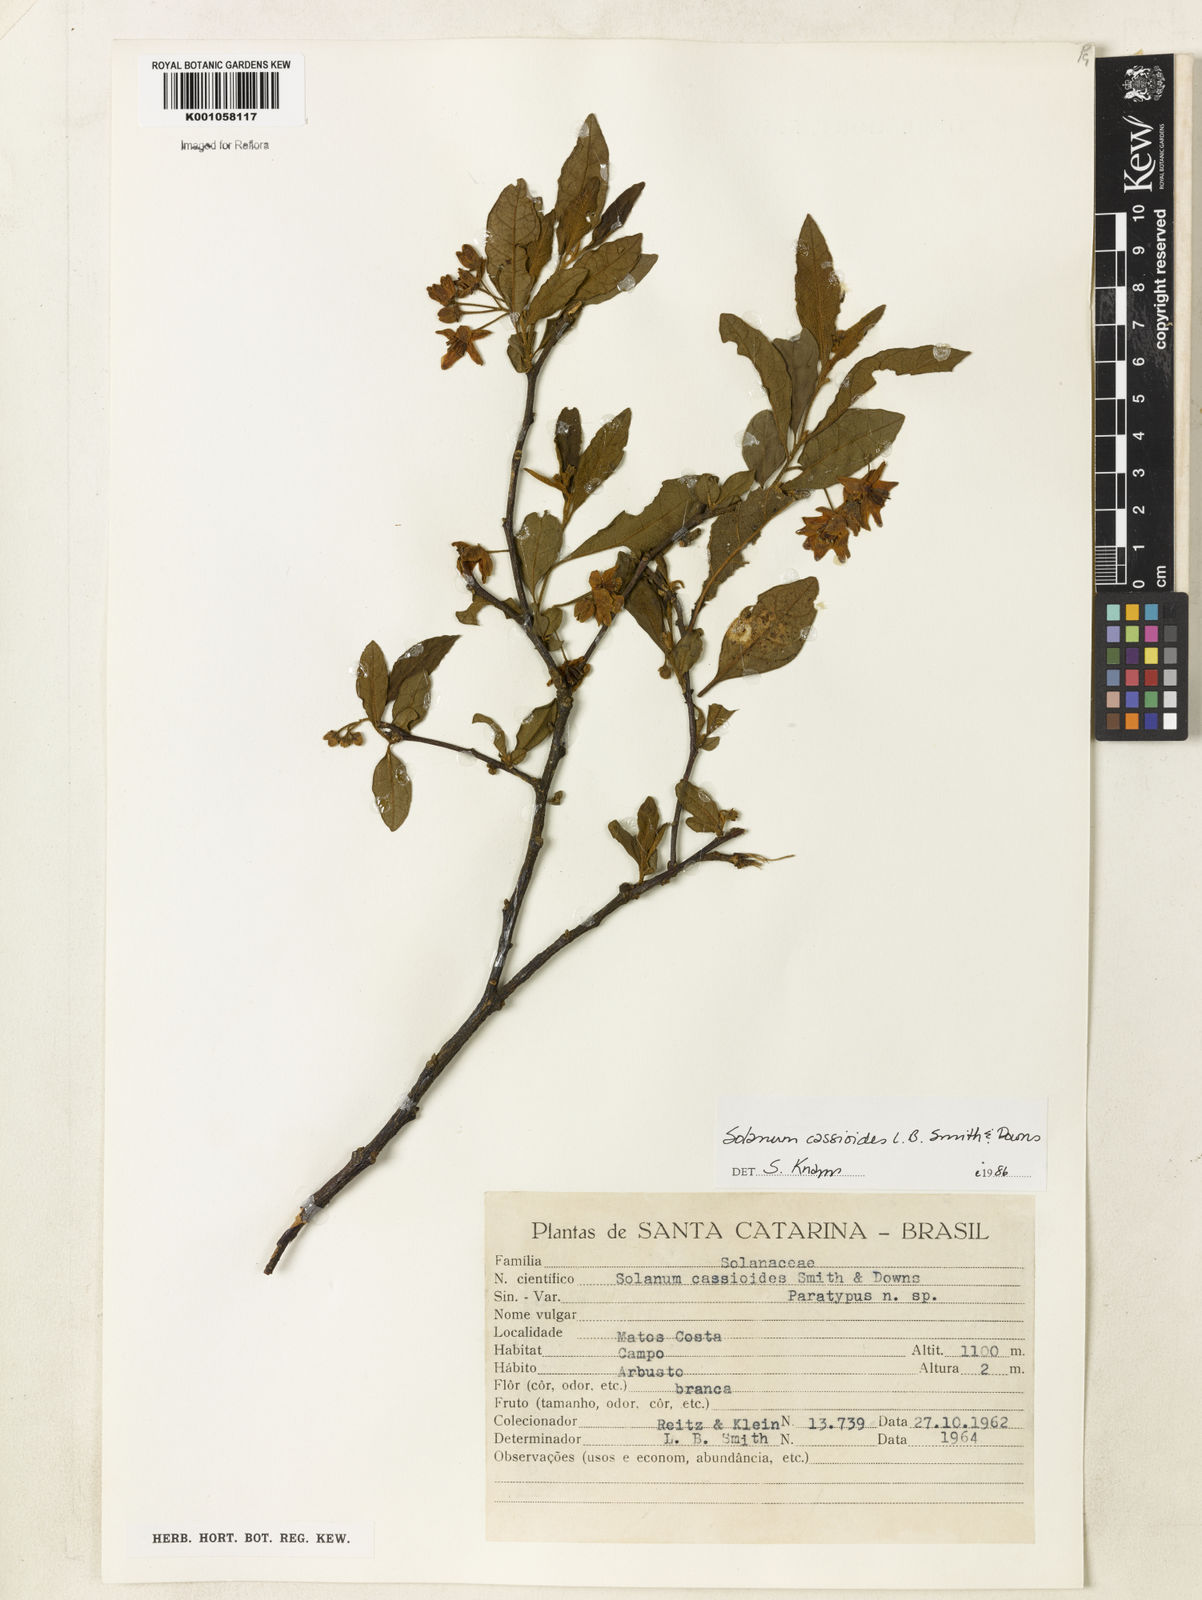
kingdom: Plantae
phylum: Tracheophyta
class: Magnoliopsida
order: Solanales
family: Solanaceae
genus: Solanum
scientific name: Solanum cassioides
